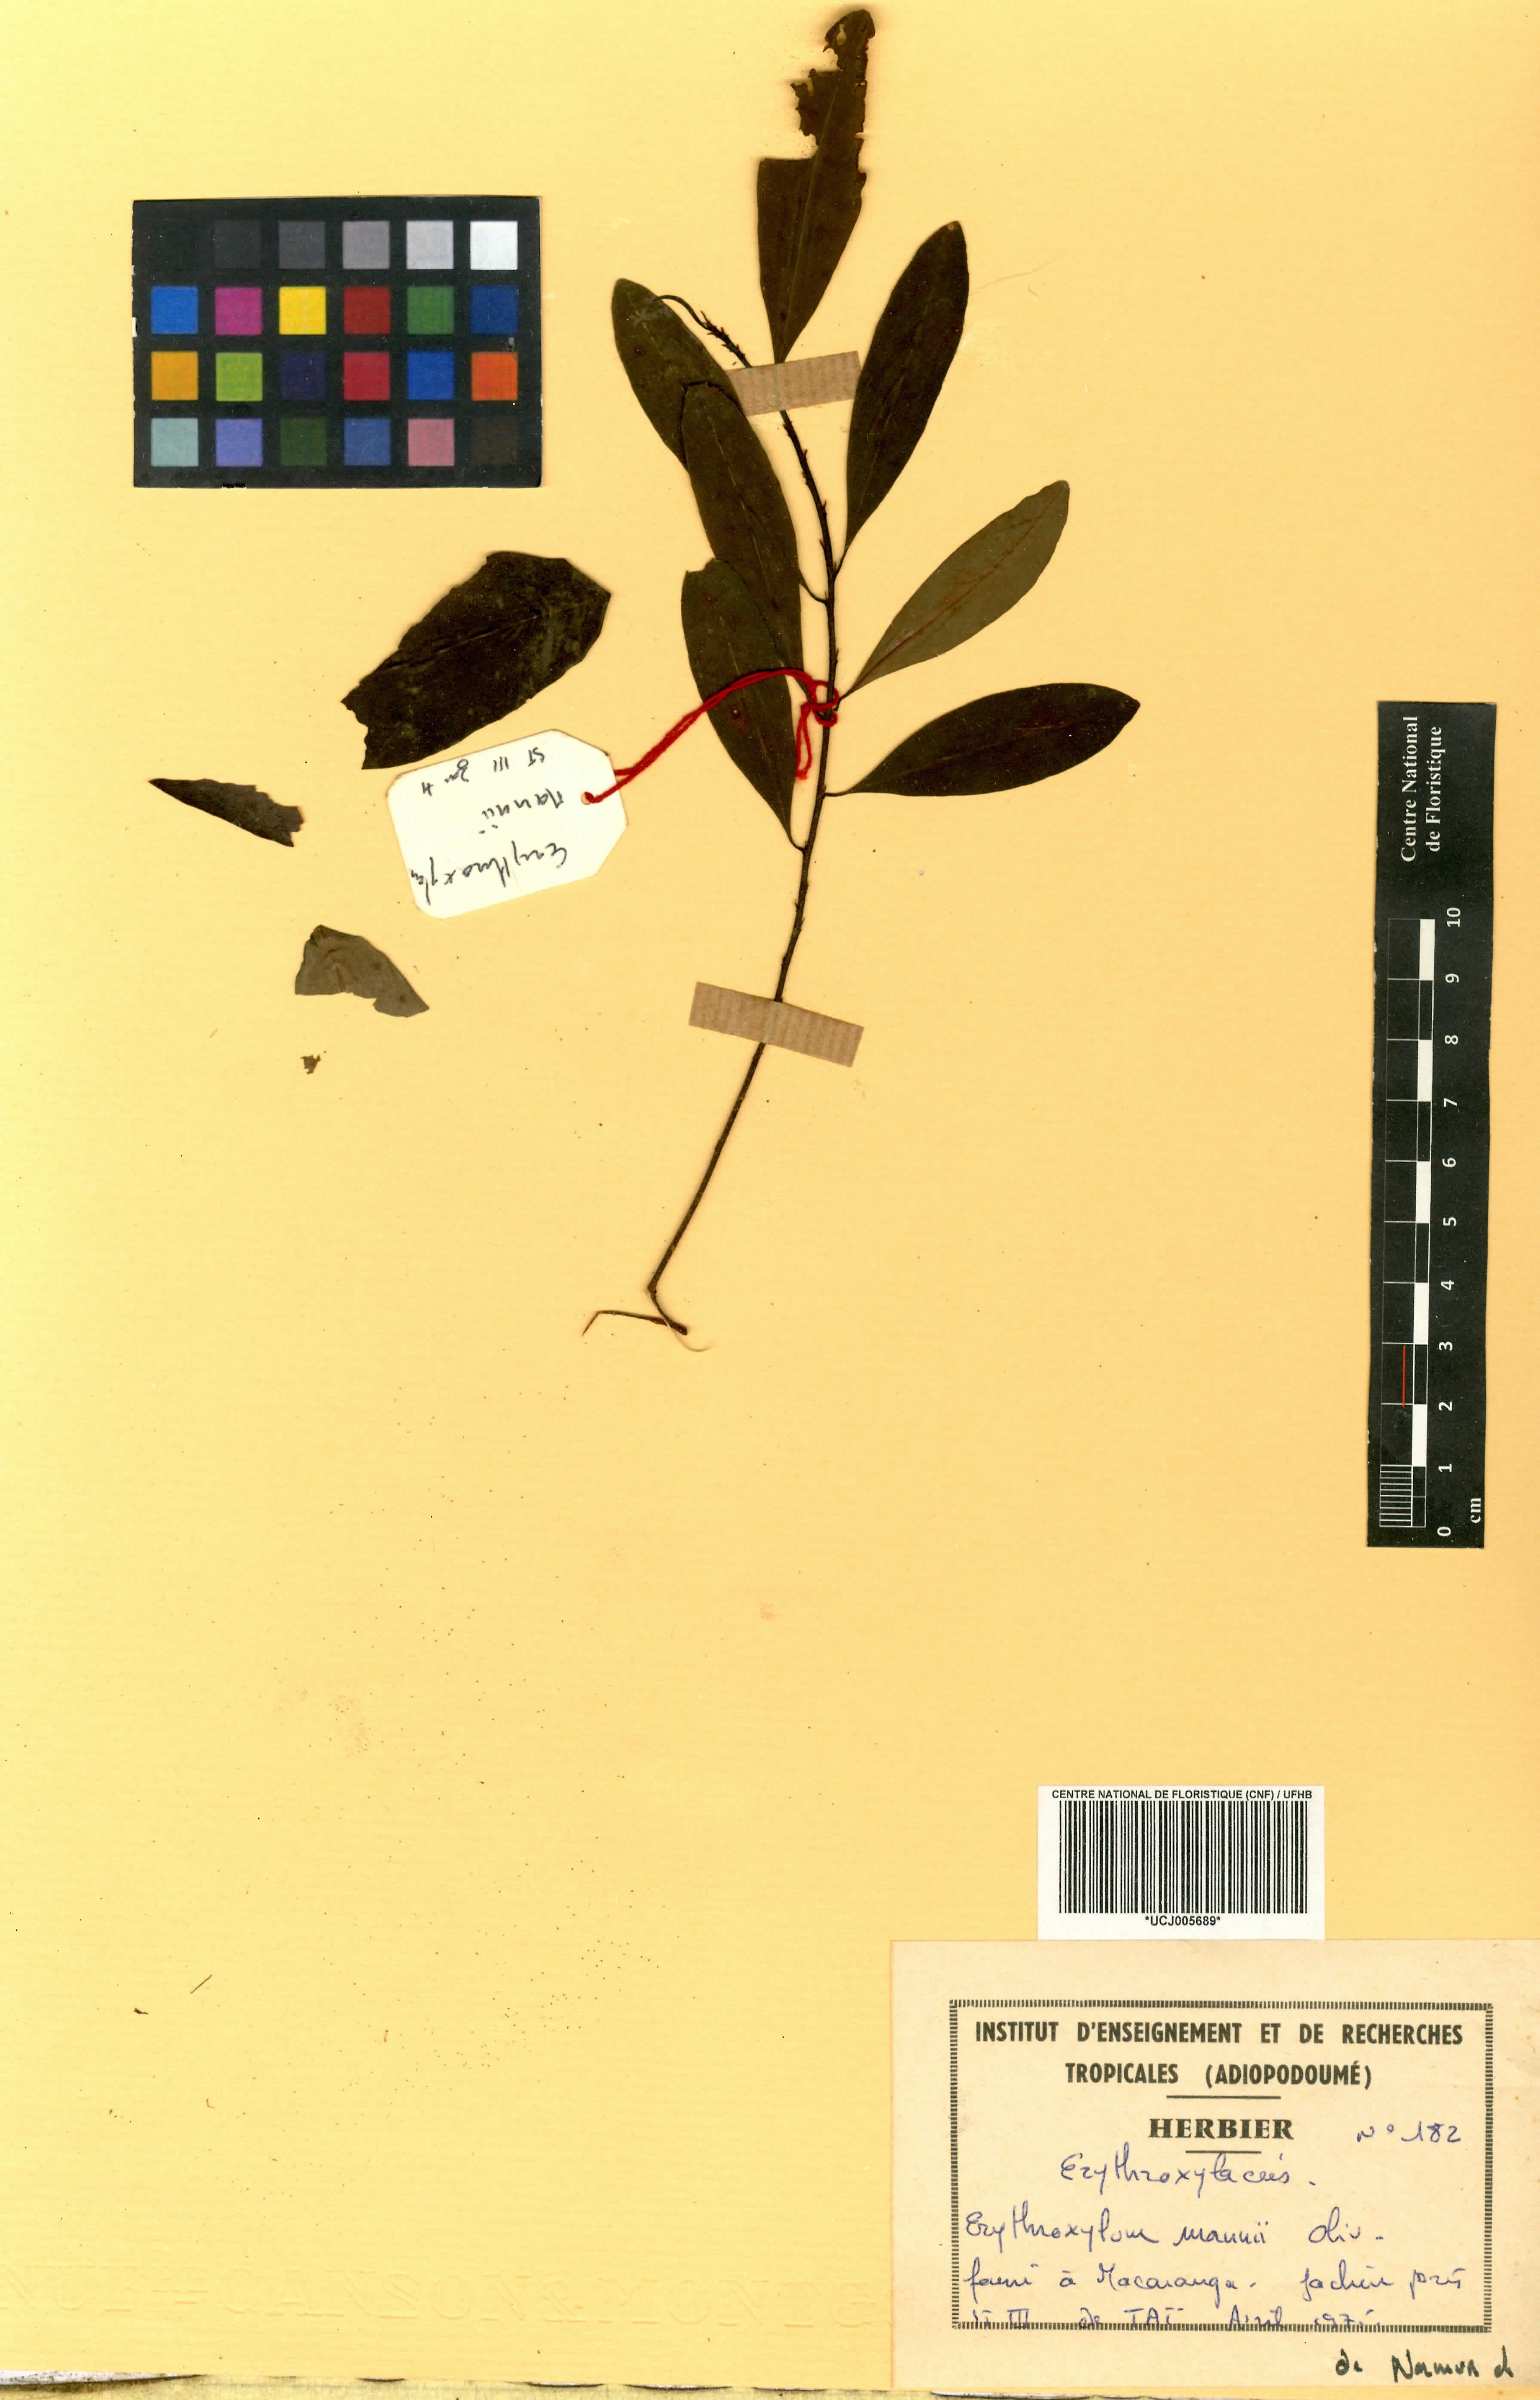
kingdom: Plantae
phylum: Tracheophyta
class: Magnoliopsida
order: Malpighiales
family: Erythroxylaceae
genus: Erythroxylum
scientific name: Erythroxylum mannii
